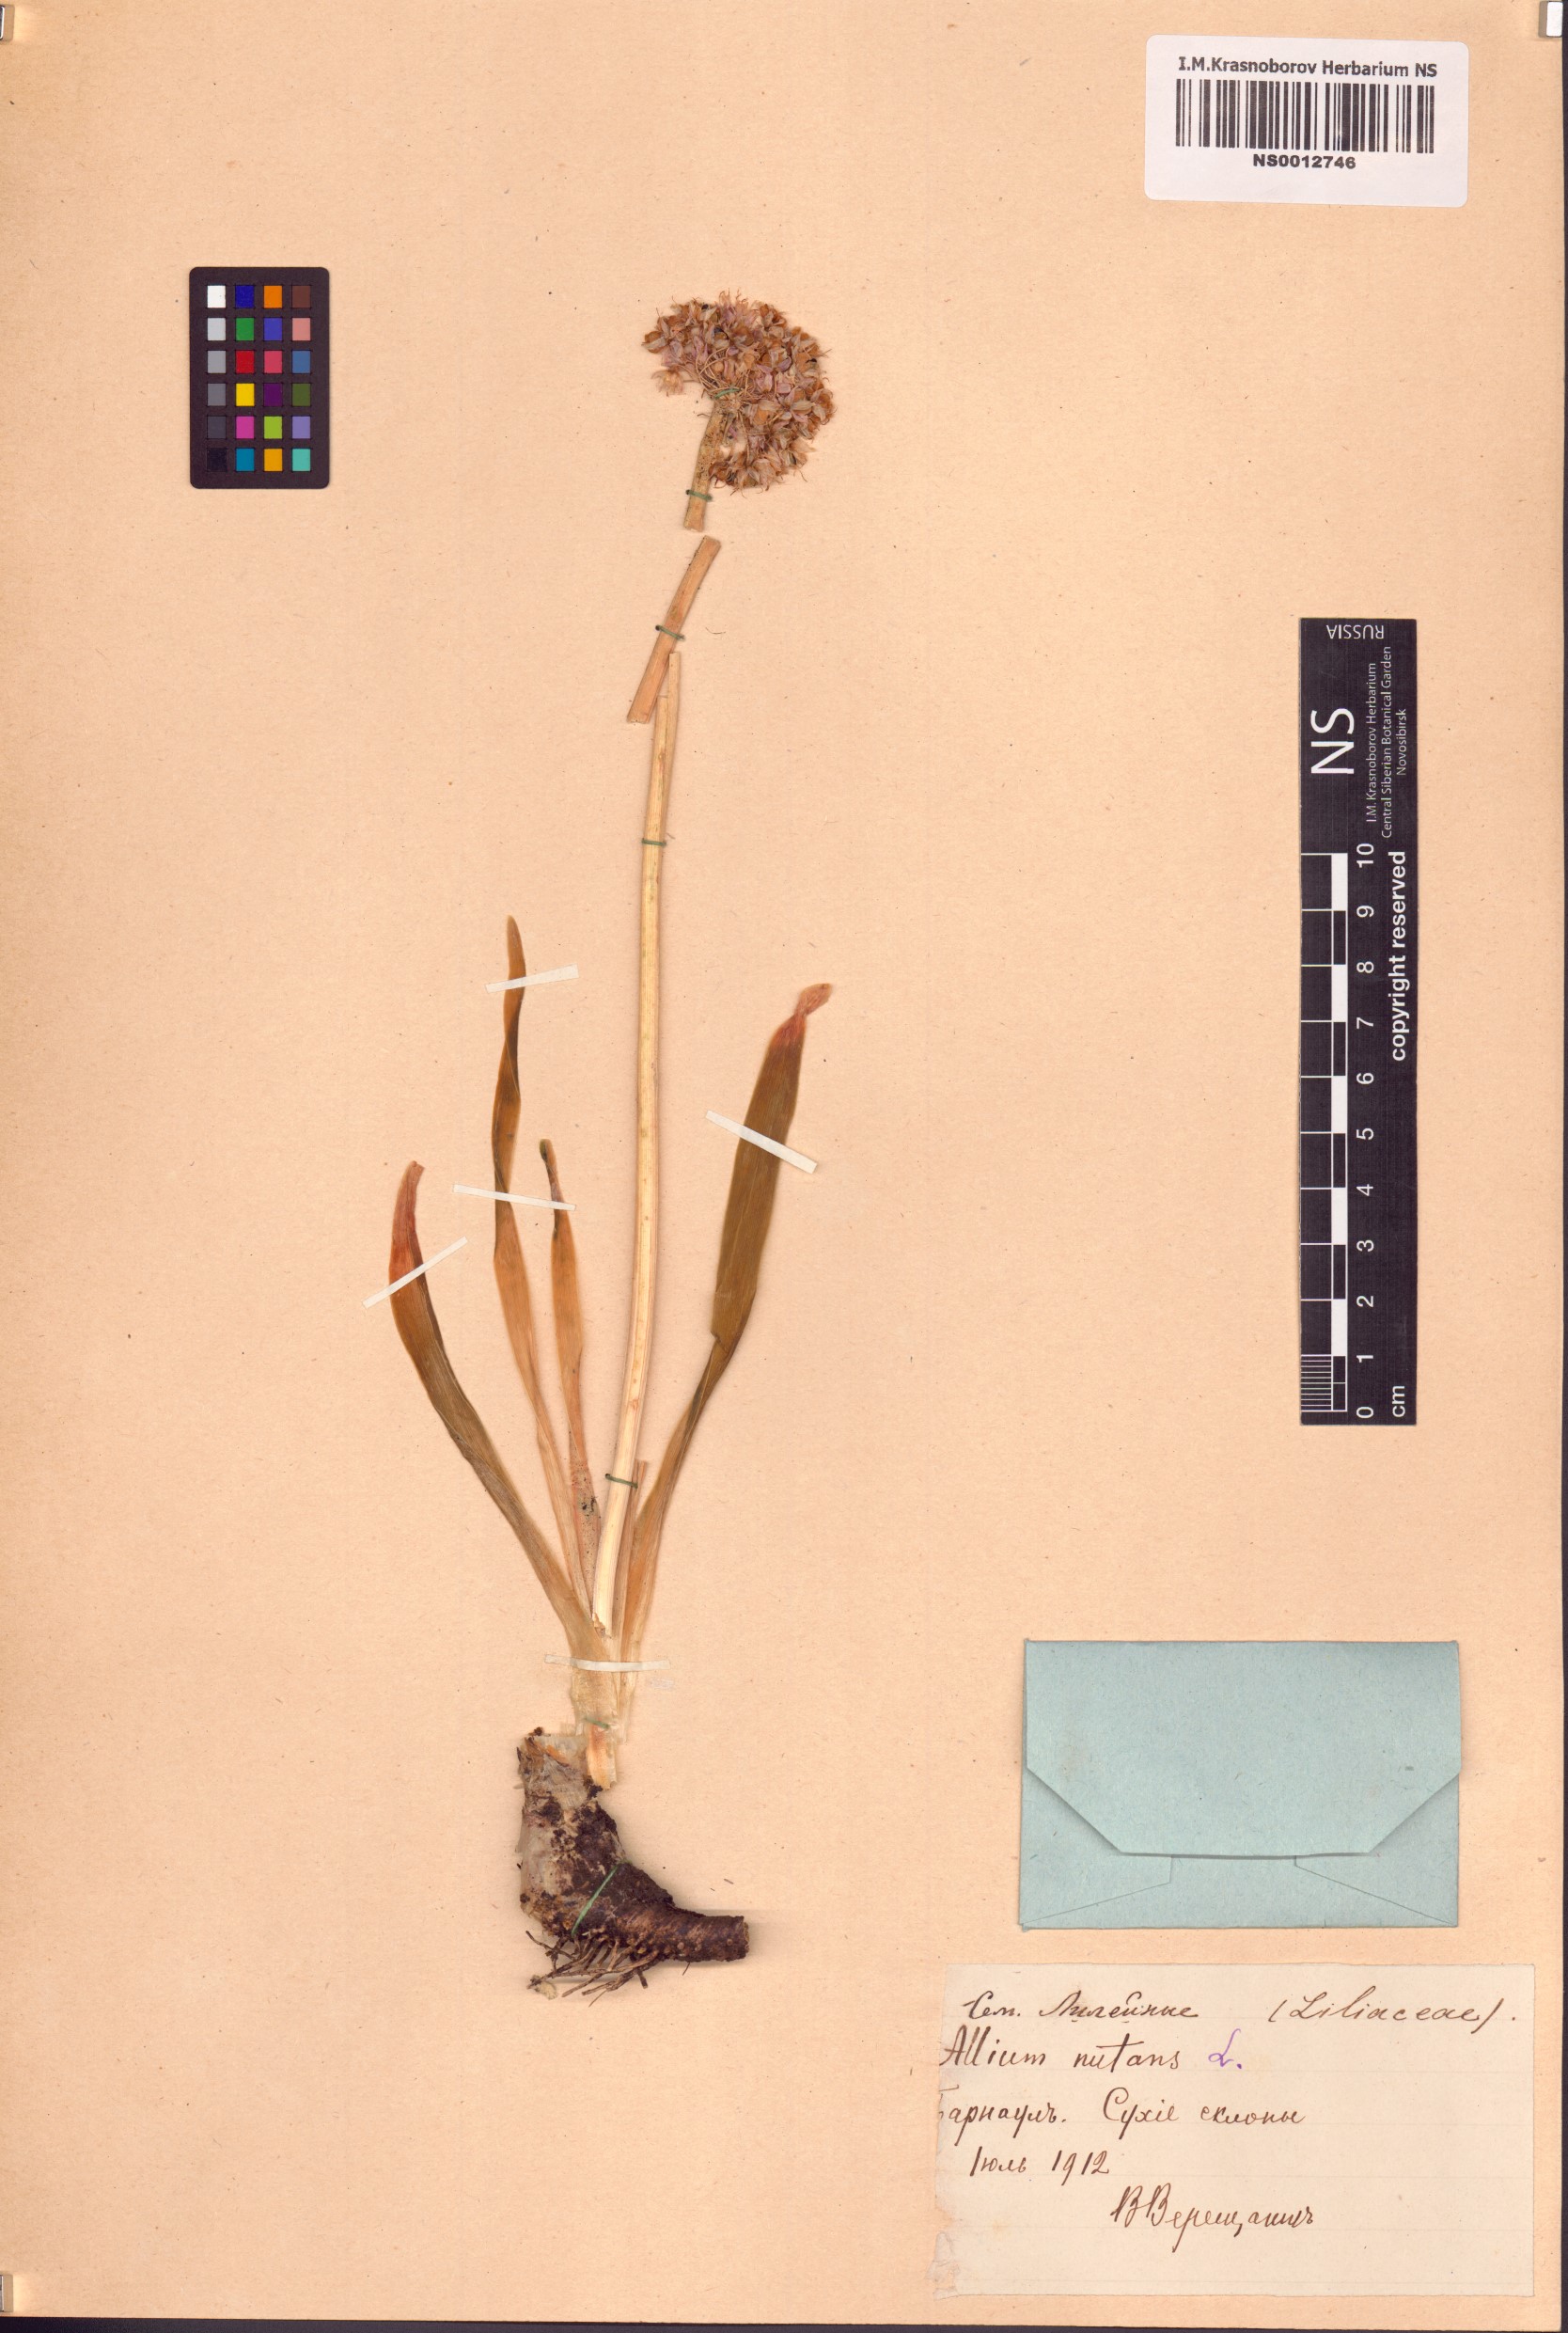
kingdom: Plantae
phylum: Tracheophyta
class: Liliopsida
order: Asparagales
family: Amaryllidaceae
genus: Allium
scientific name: Allium nutans
